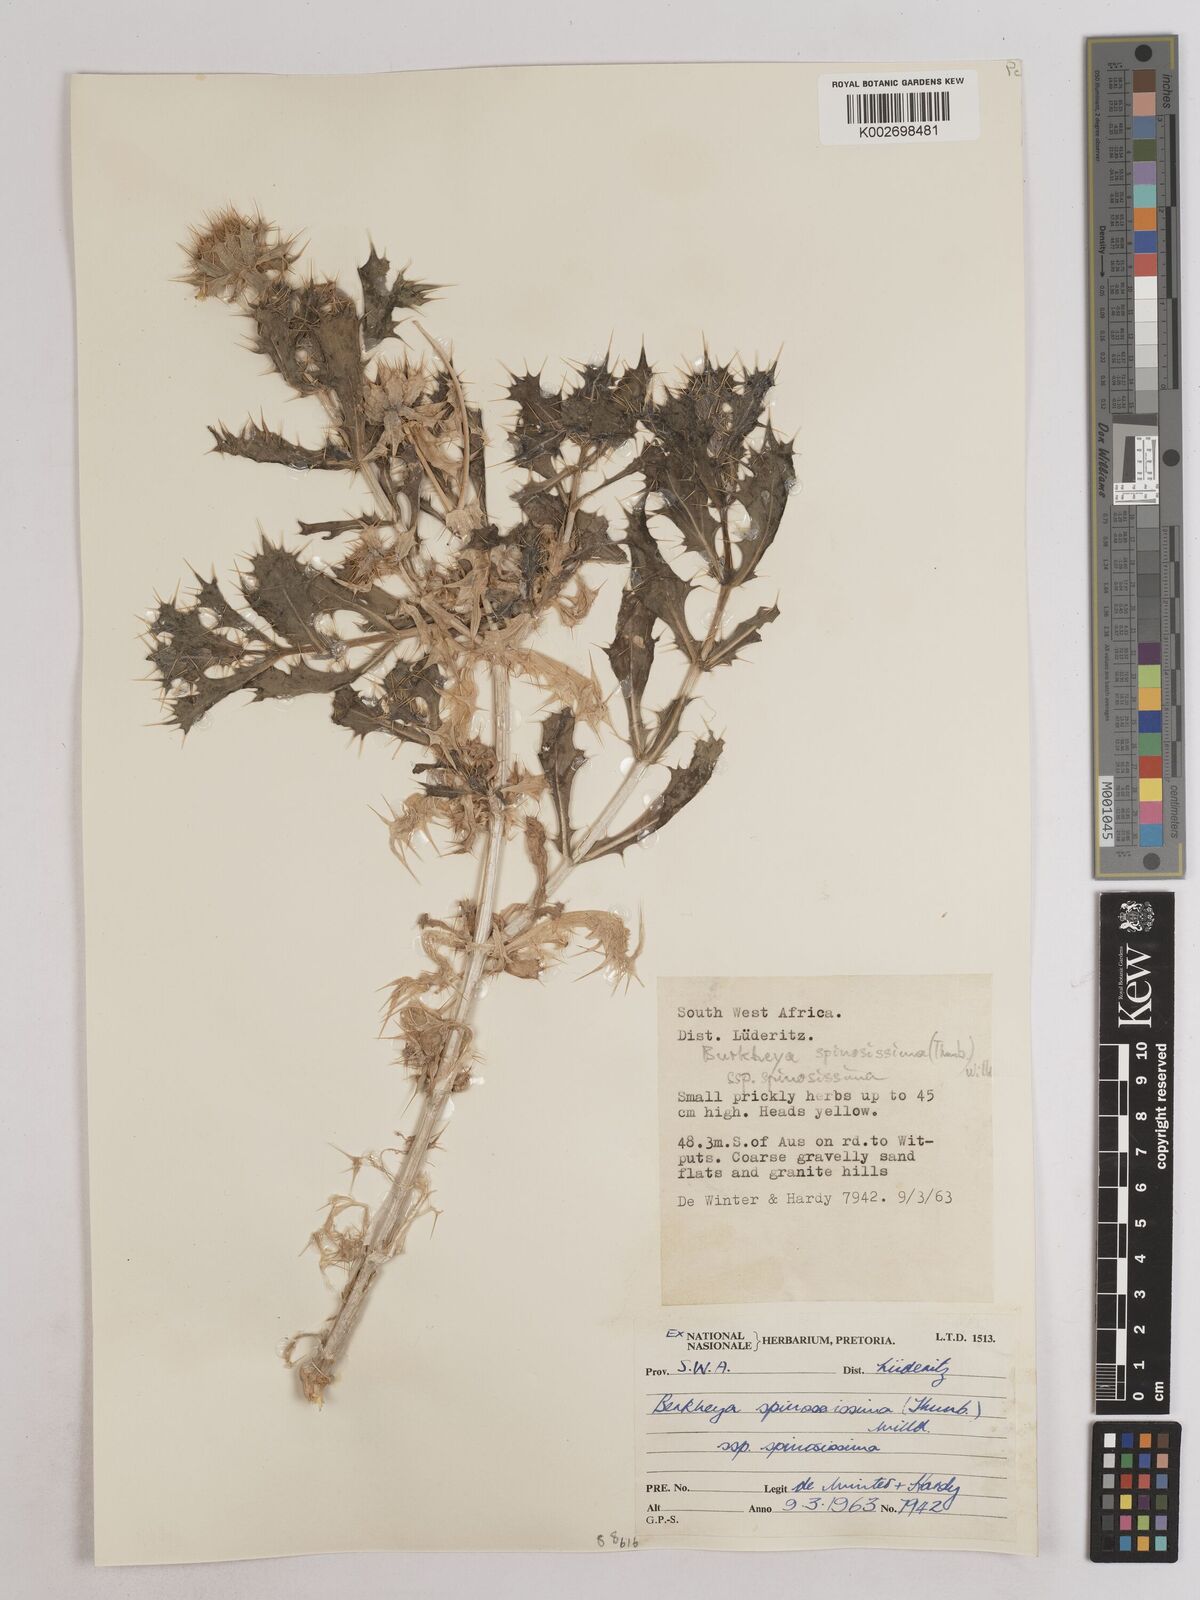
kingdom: Plantae
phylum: Tracheophyta
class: Magnoliopsida
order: Asterales
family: Asteraceae
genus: Berkheya
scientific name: Berkheya spinosissima
